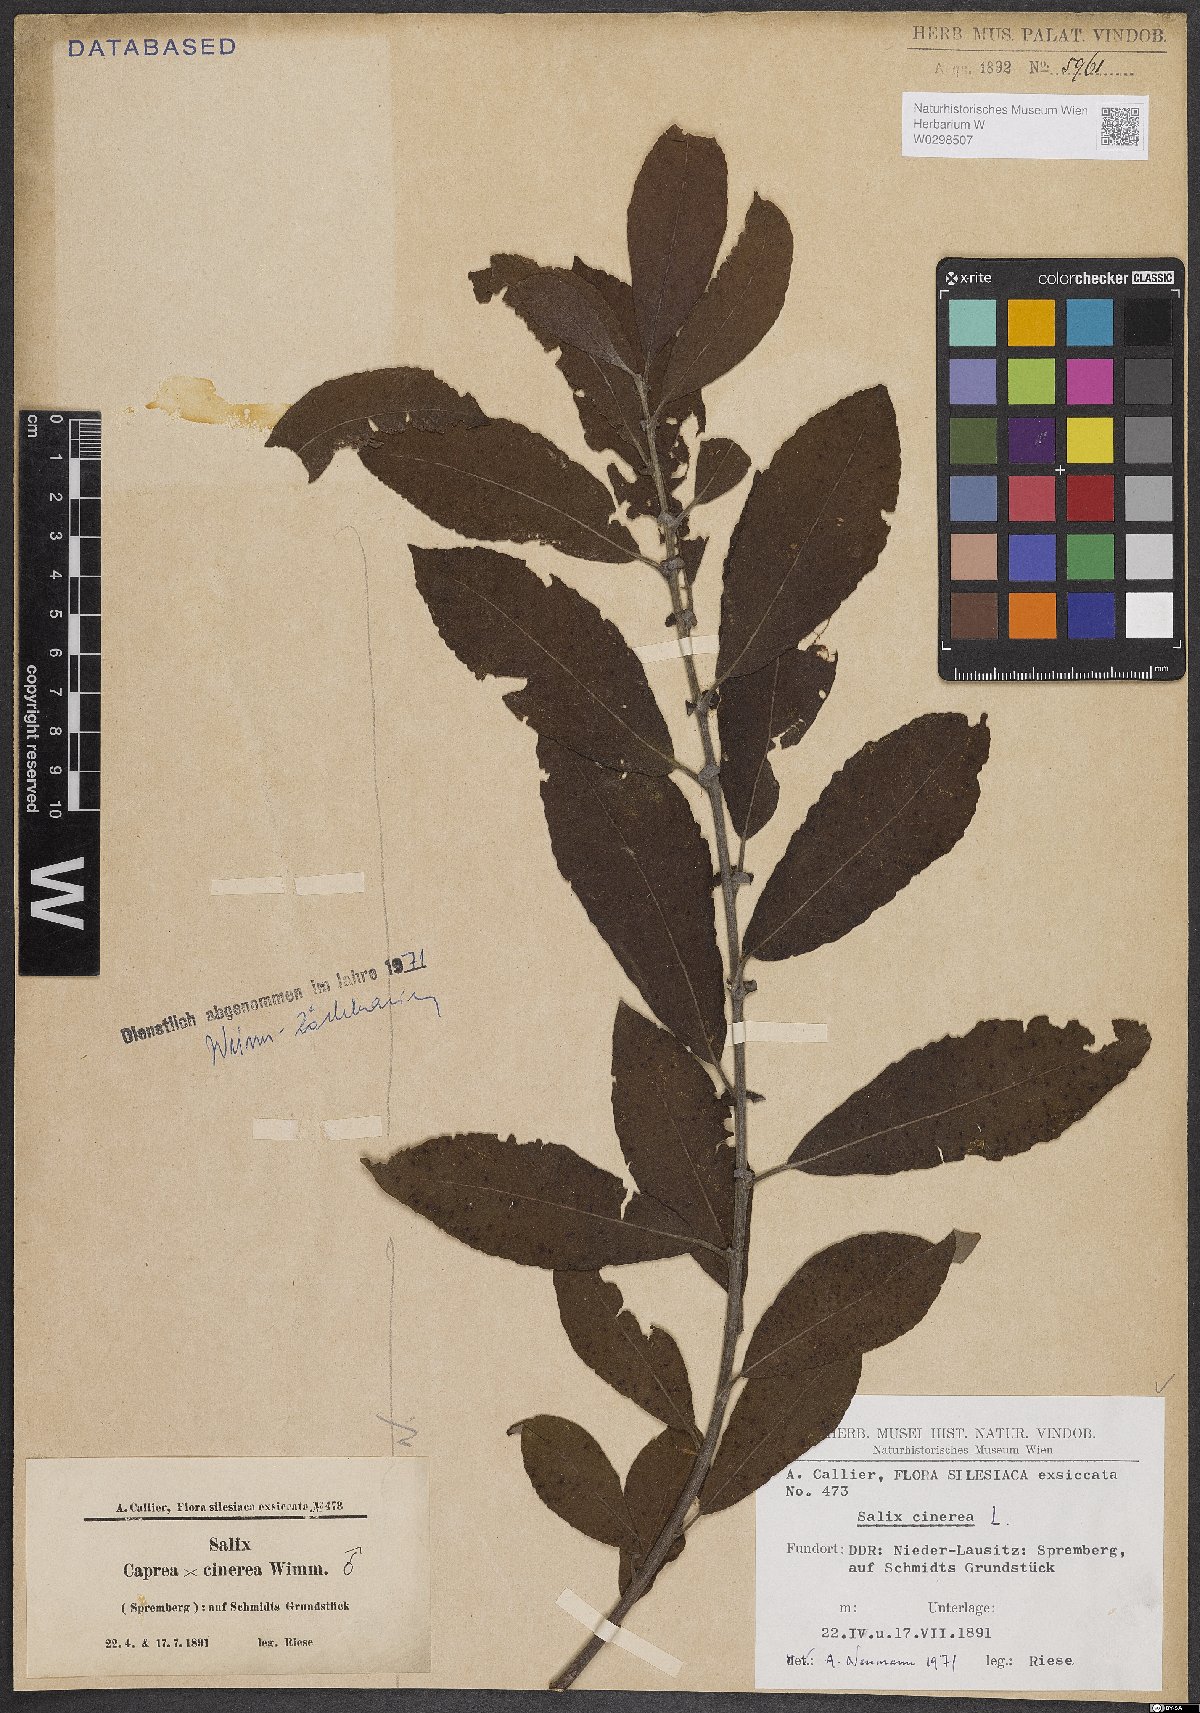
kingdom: Plantae
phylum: Tracheophyta
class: Magnoliopsida
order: Malpighiales
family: Salicaceae
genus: Salix
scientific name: Salix cinerea
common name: Common sallow
